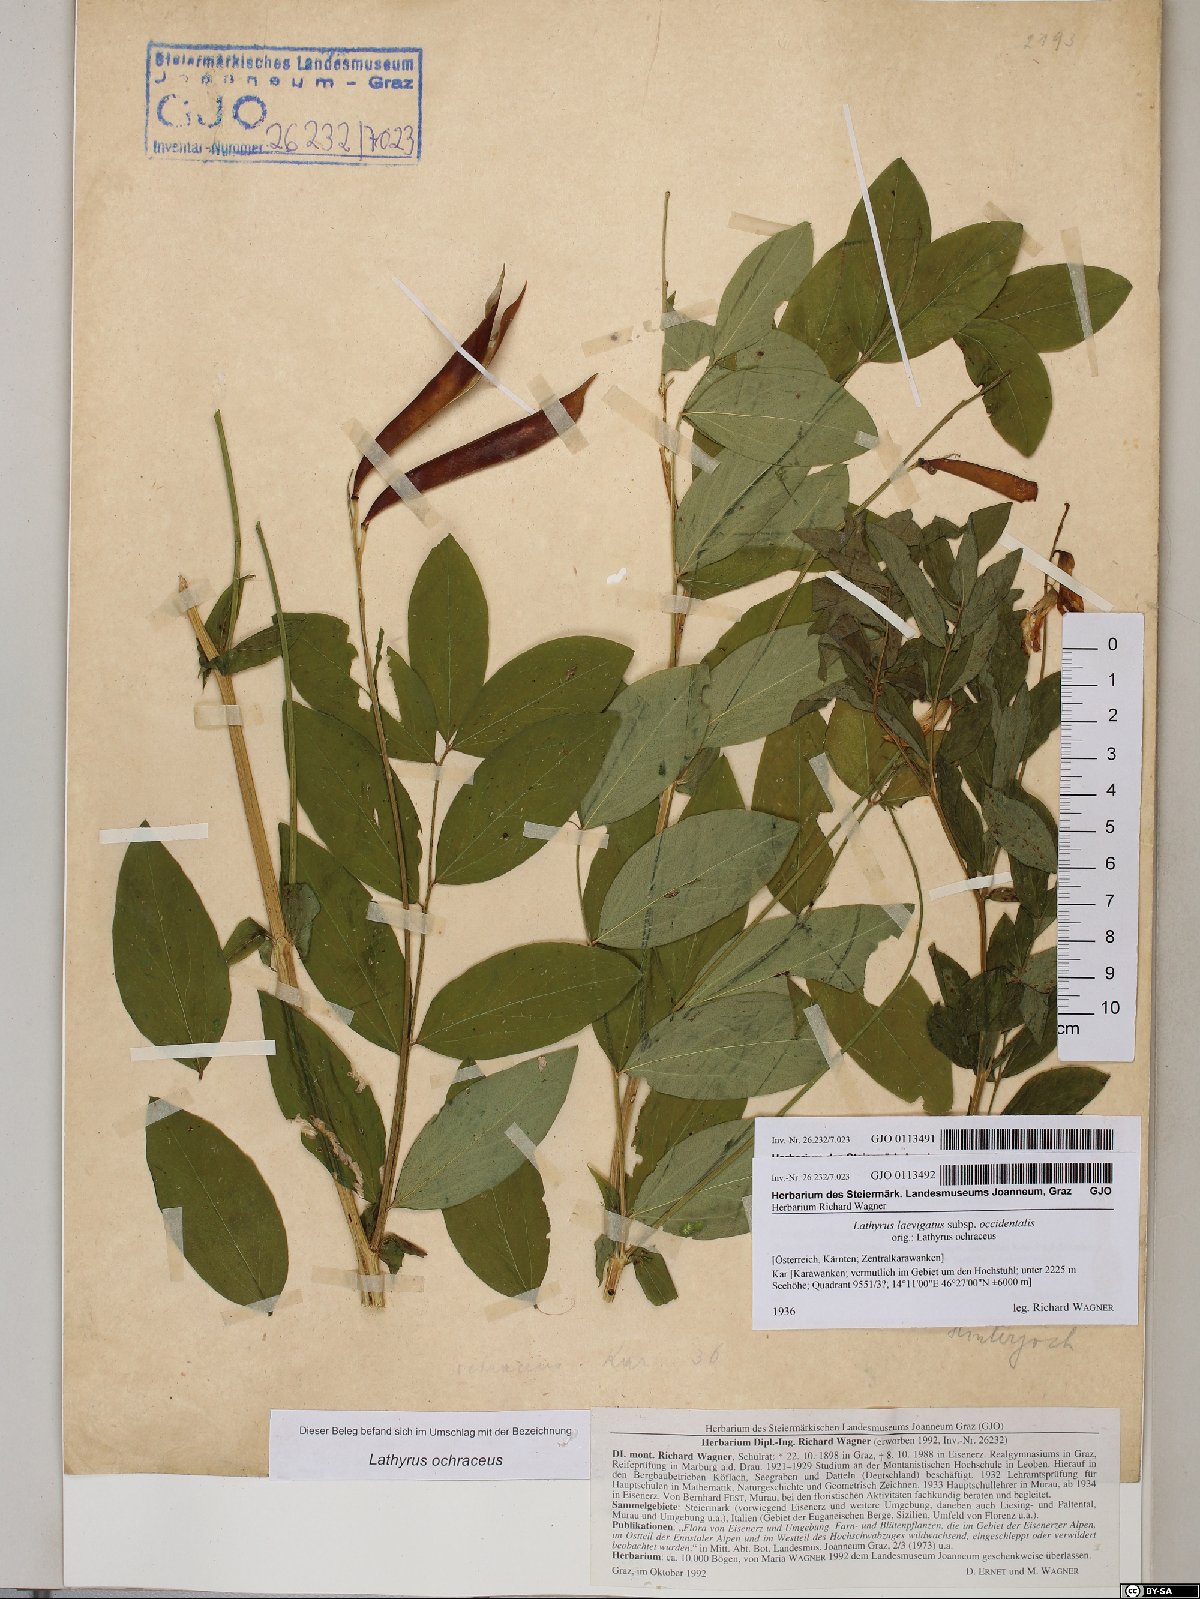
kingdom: Plantae
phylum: Tracheophyta
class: Magnoliopsida
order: Fabales
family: Fabaceae
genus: Lathyrus
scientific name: Lathyrus laevigatus
